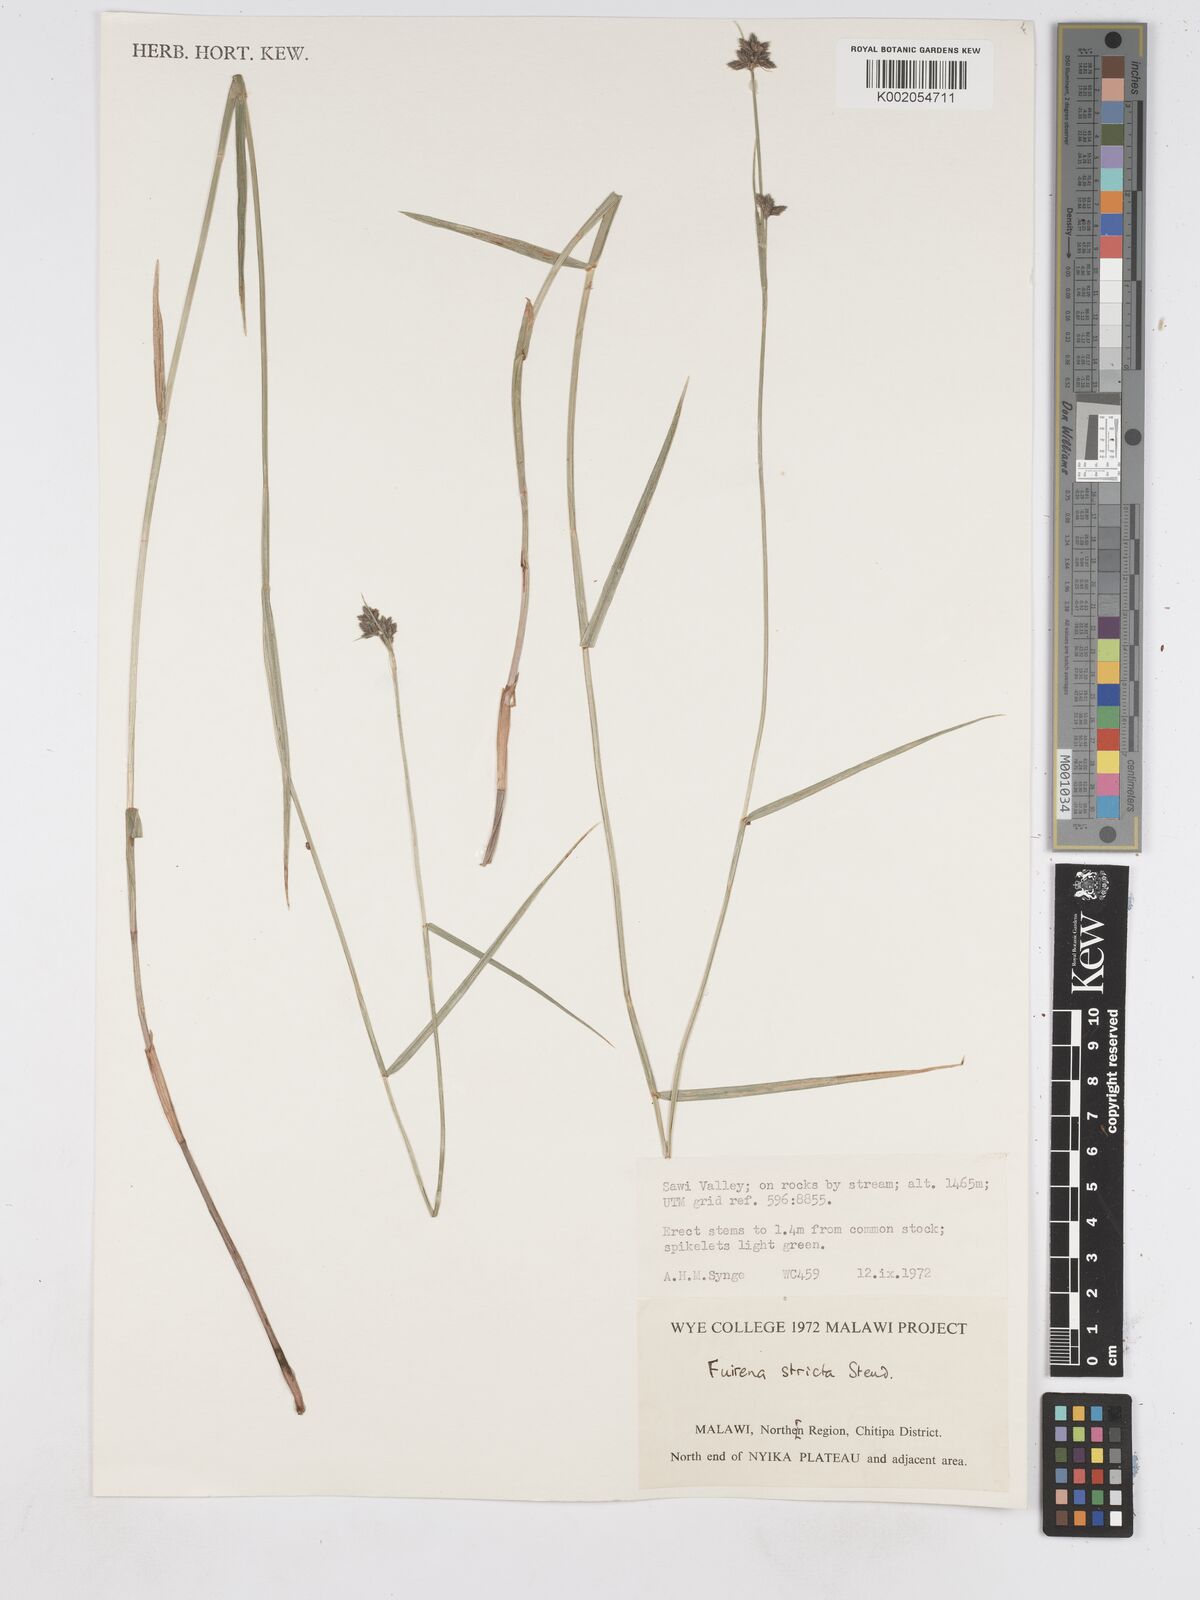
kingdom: Plantae
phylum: Tracheophyta
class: Liliopsida
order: Poales
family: Cyperaceae
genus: Fuirena
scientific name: Fuirena stricta
